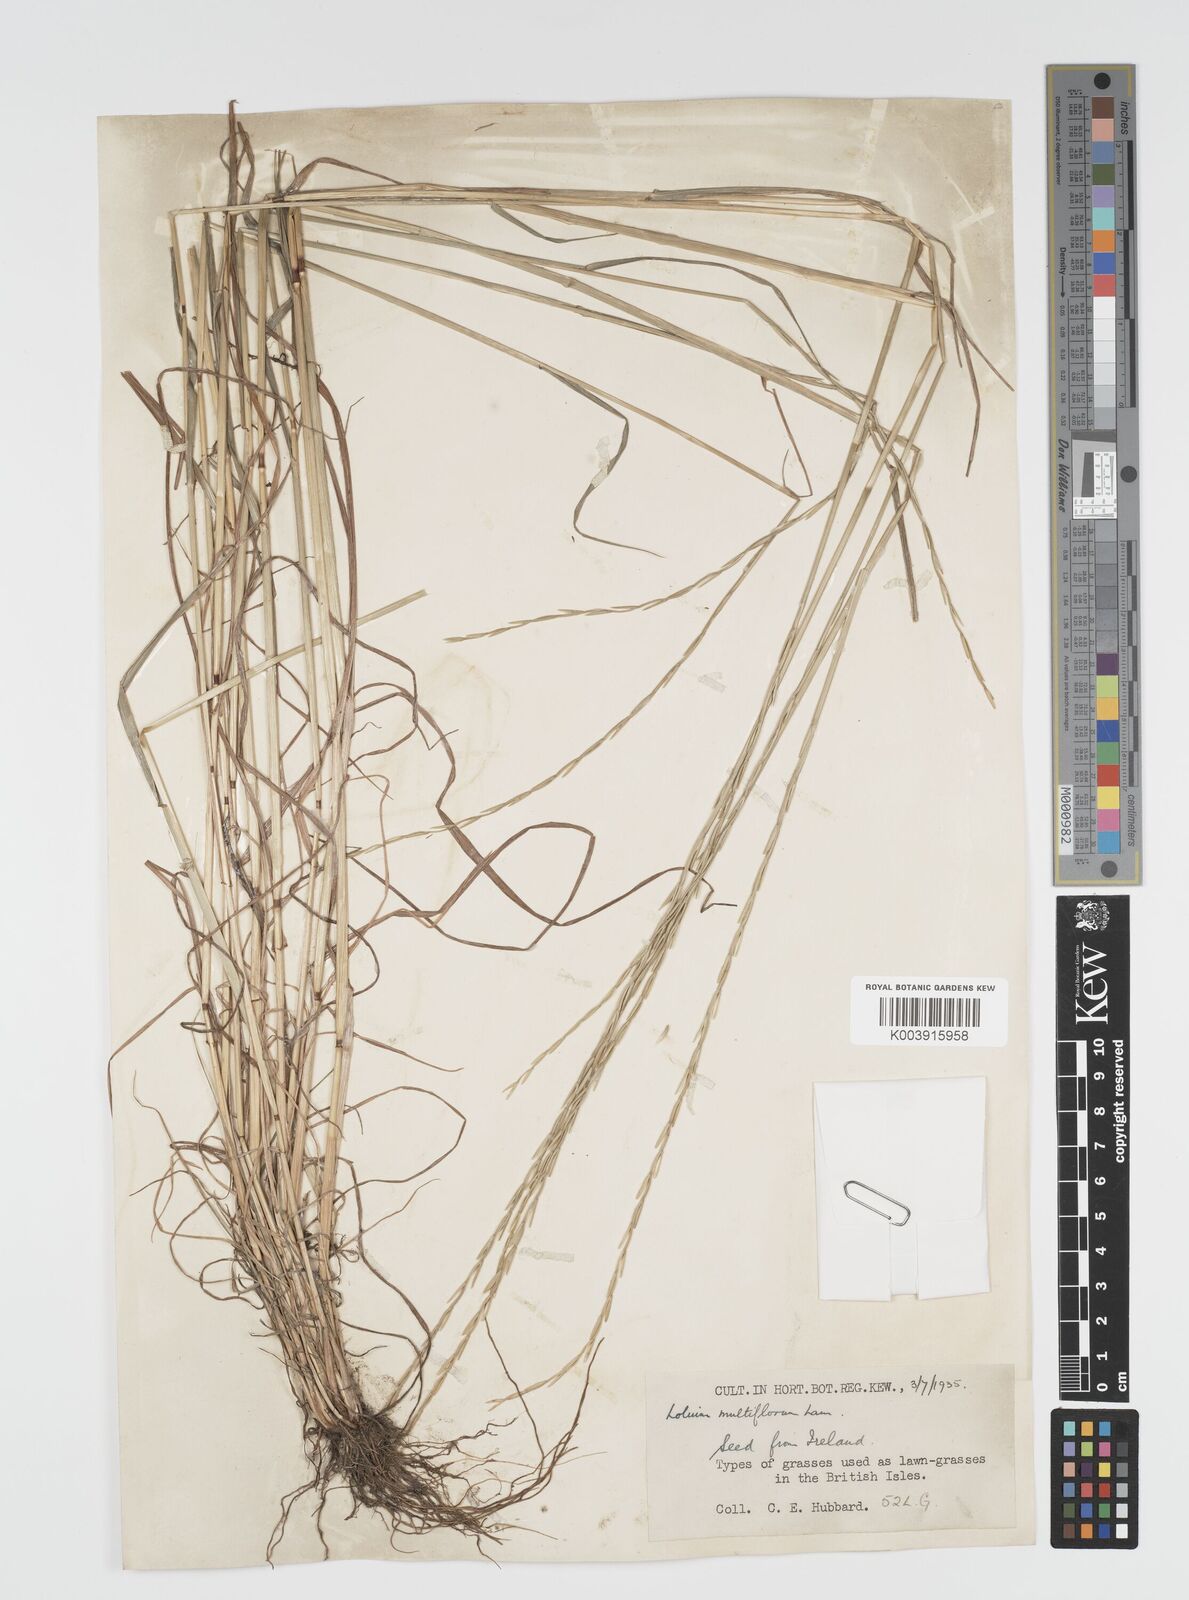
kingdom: Plantae
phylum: Tracheophyta
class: Liliopsida
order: Poales
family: Poaceae
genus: Lolium
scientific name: Lolium multiflorum
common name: Annual ryegrass
